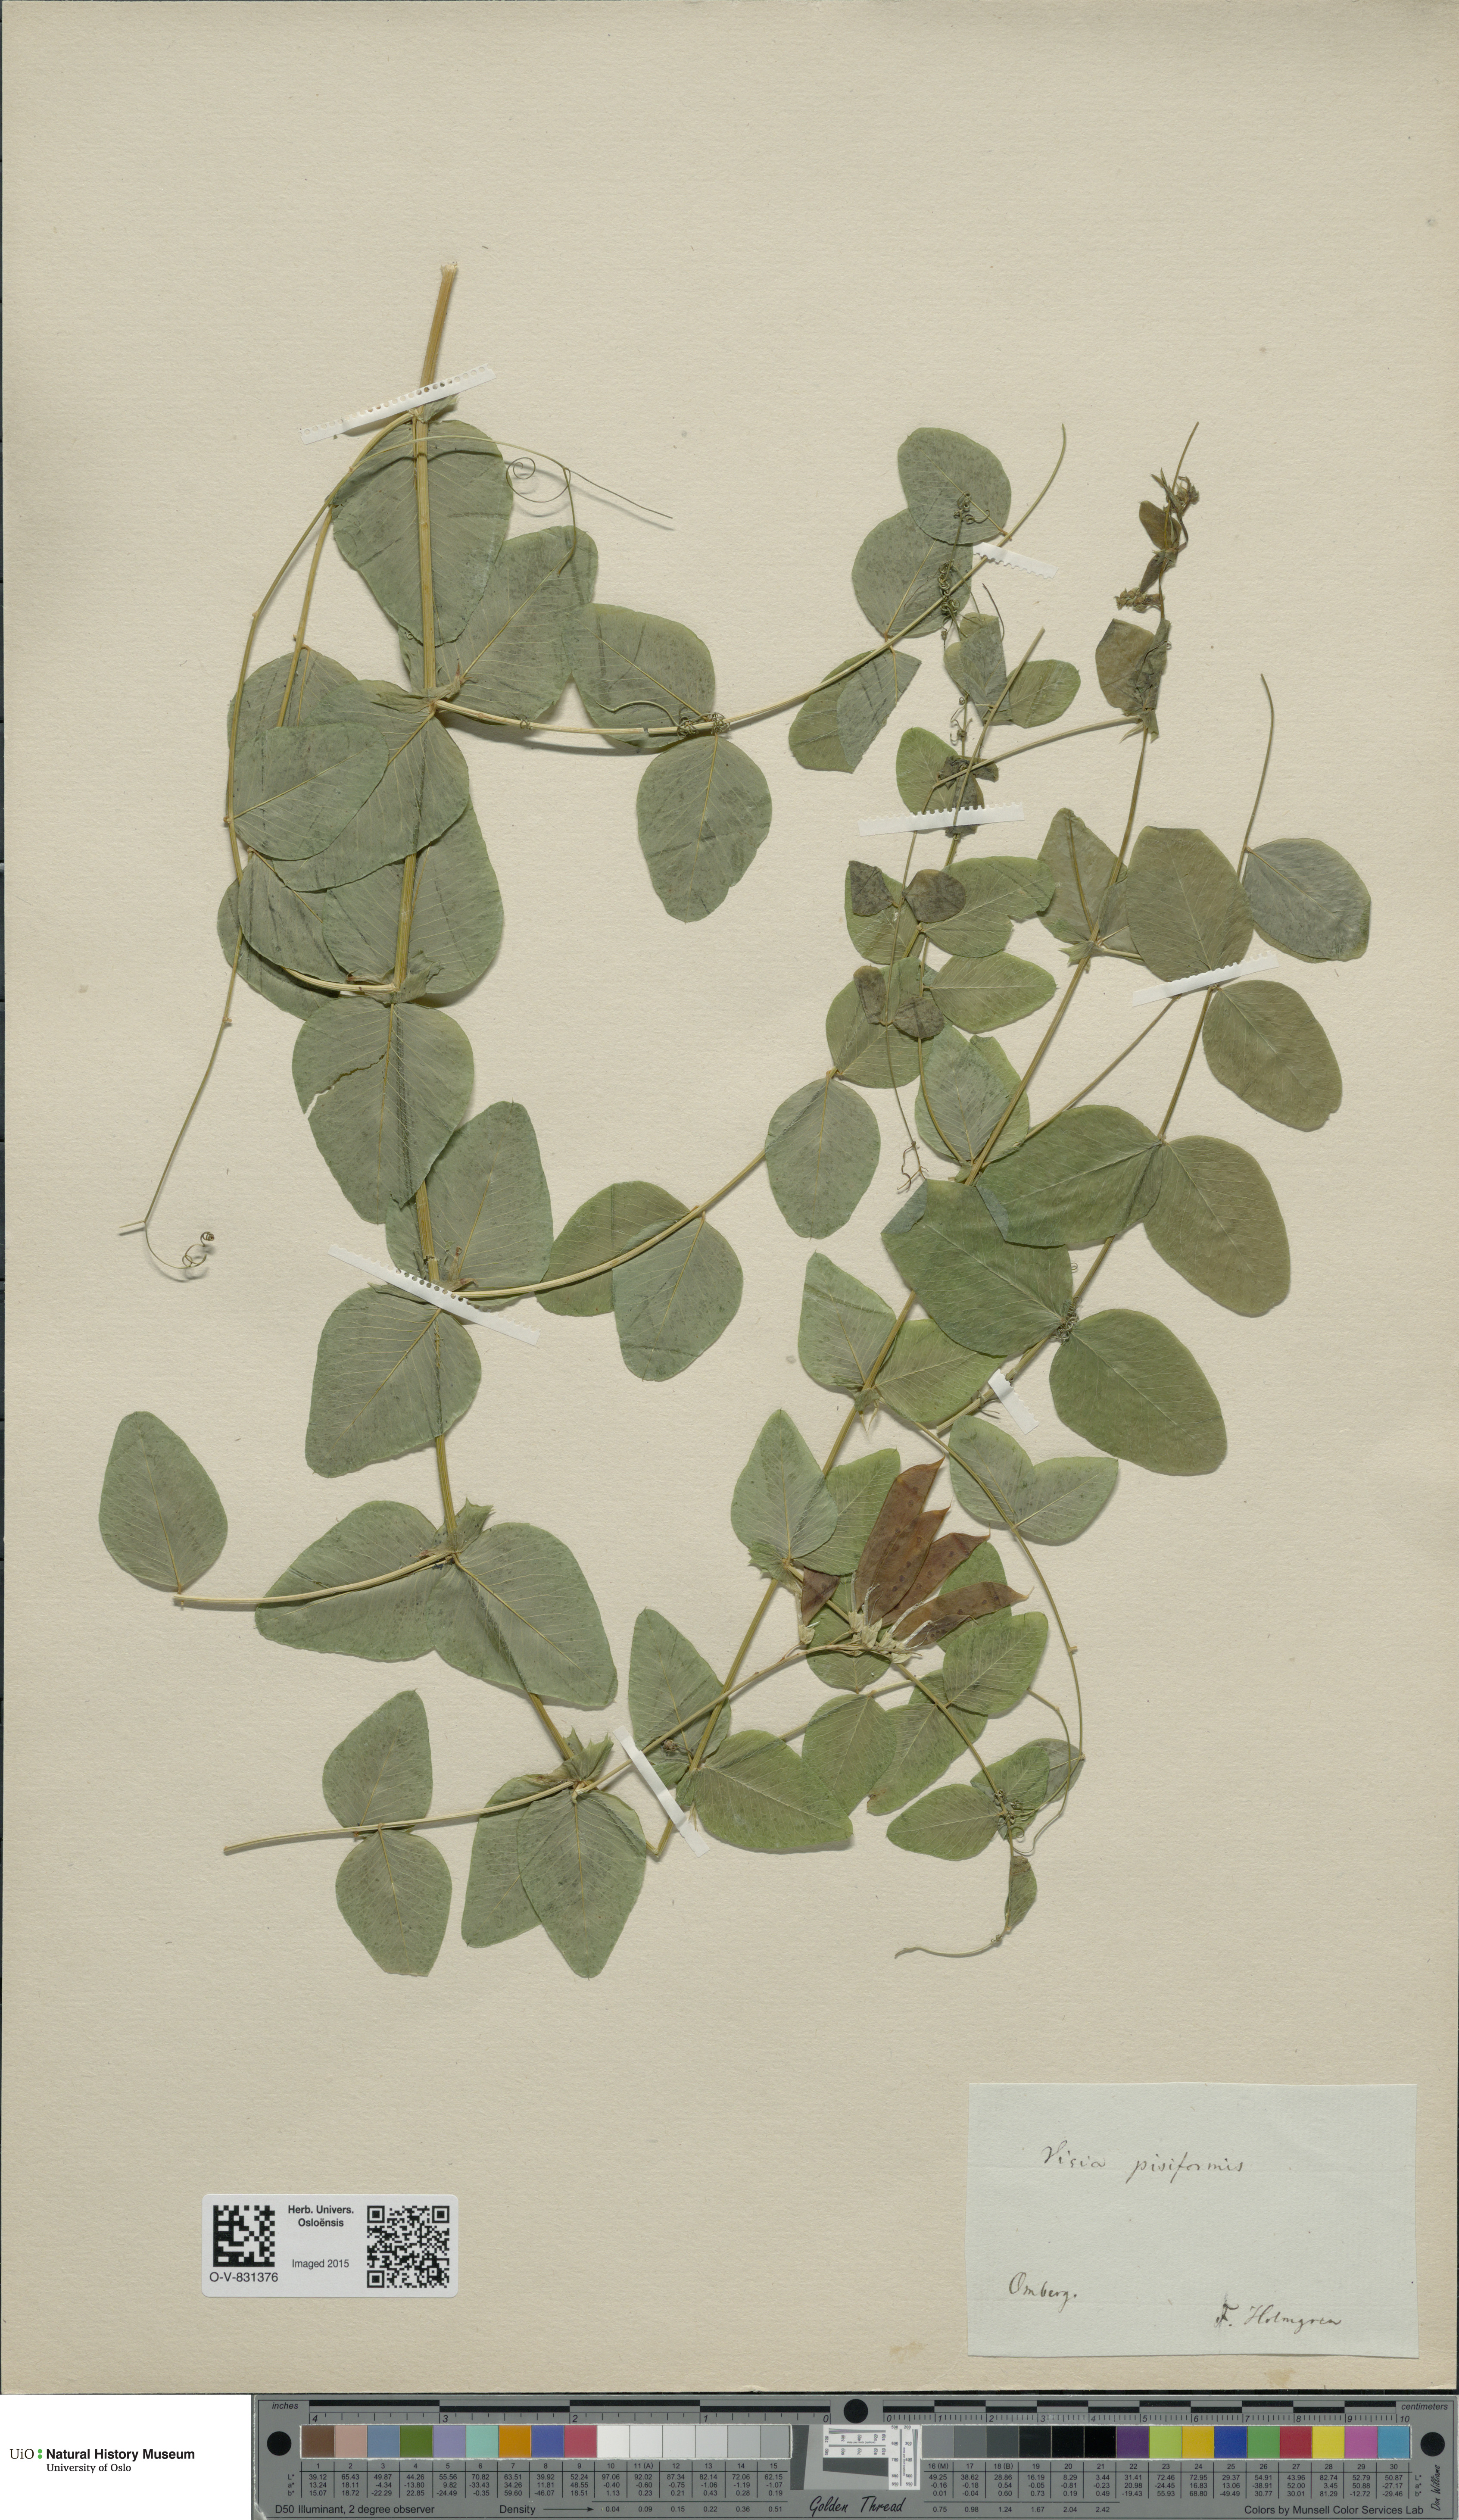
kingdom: Plantae
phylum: Tracheophyta
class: Magnoliopsida
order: Fabales
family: Fabaceae
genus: Vicia
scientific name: Vicia pisiformis
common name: Pale-flower vetch
